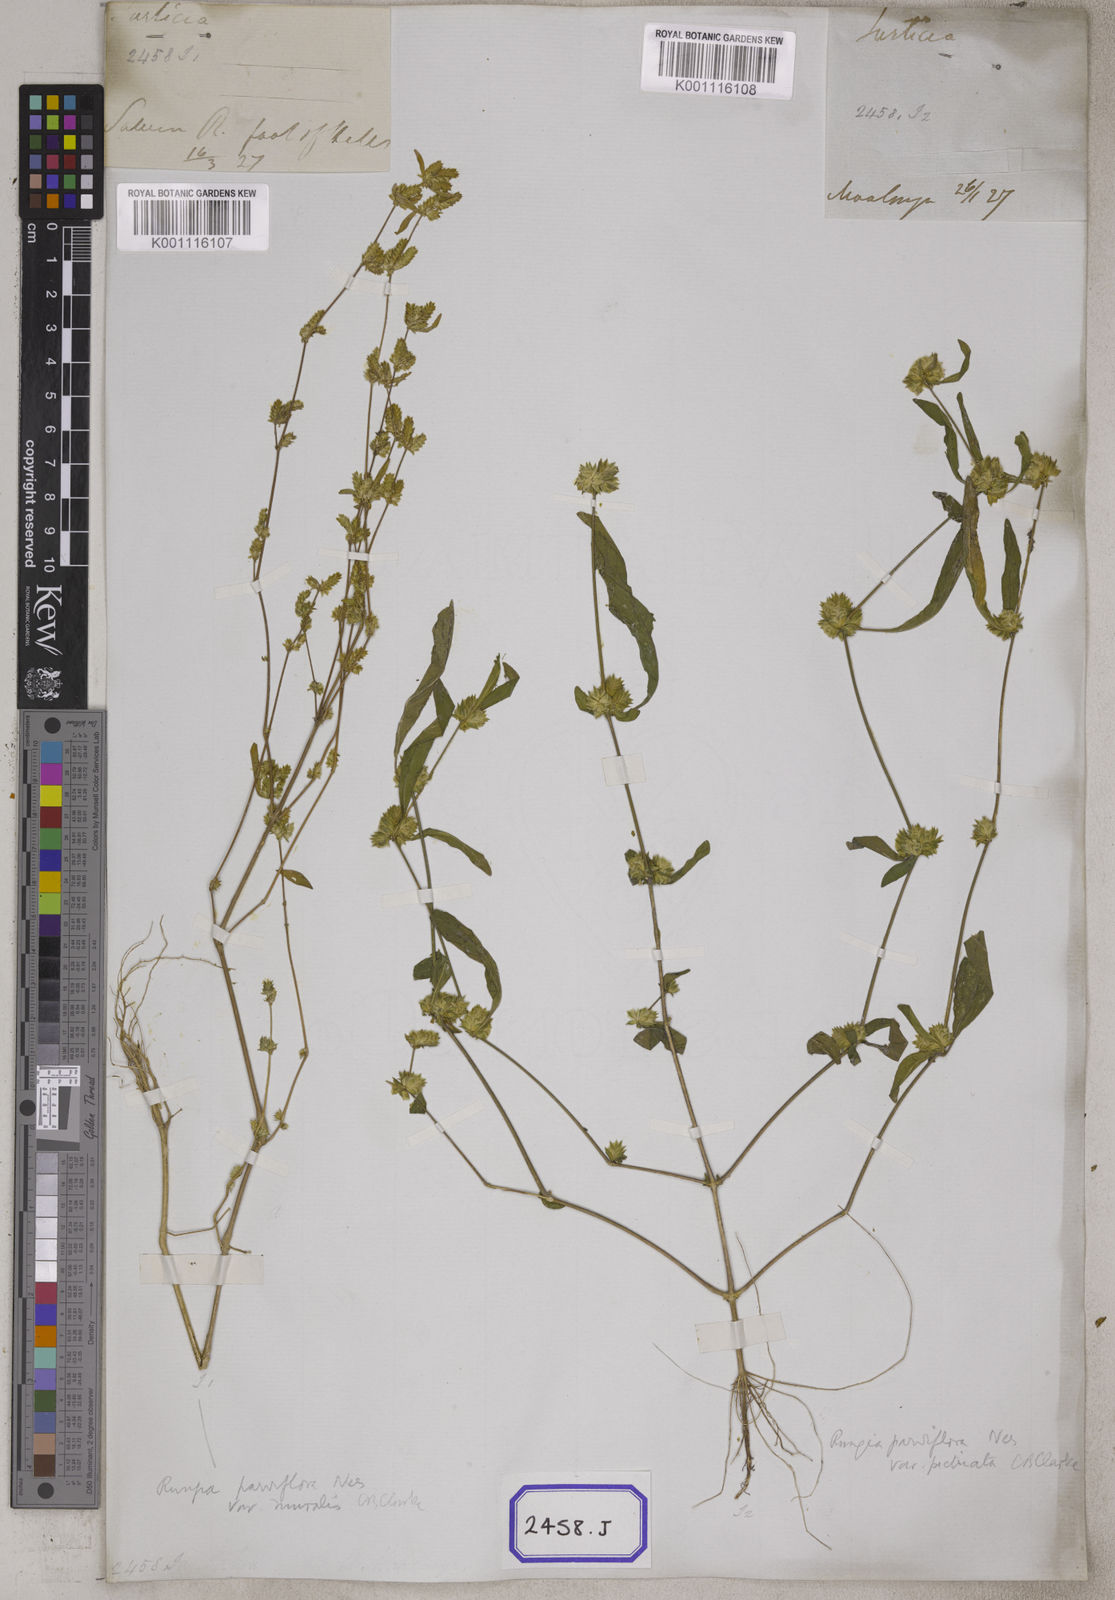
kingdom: Plantae
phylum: Tracheophyta
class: Magnoliopsida
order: Lamiales
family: Acanthaceae
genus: Rungia
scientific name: Rungia pectinata
